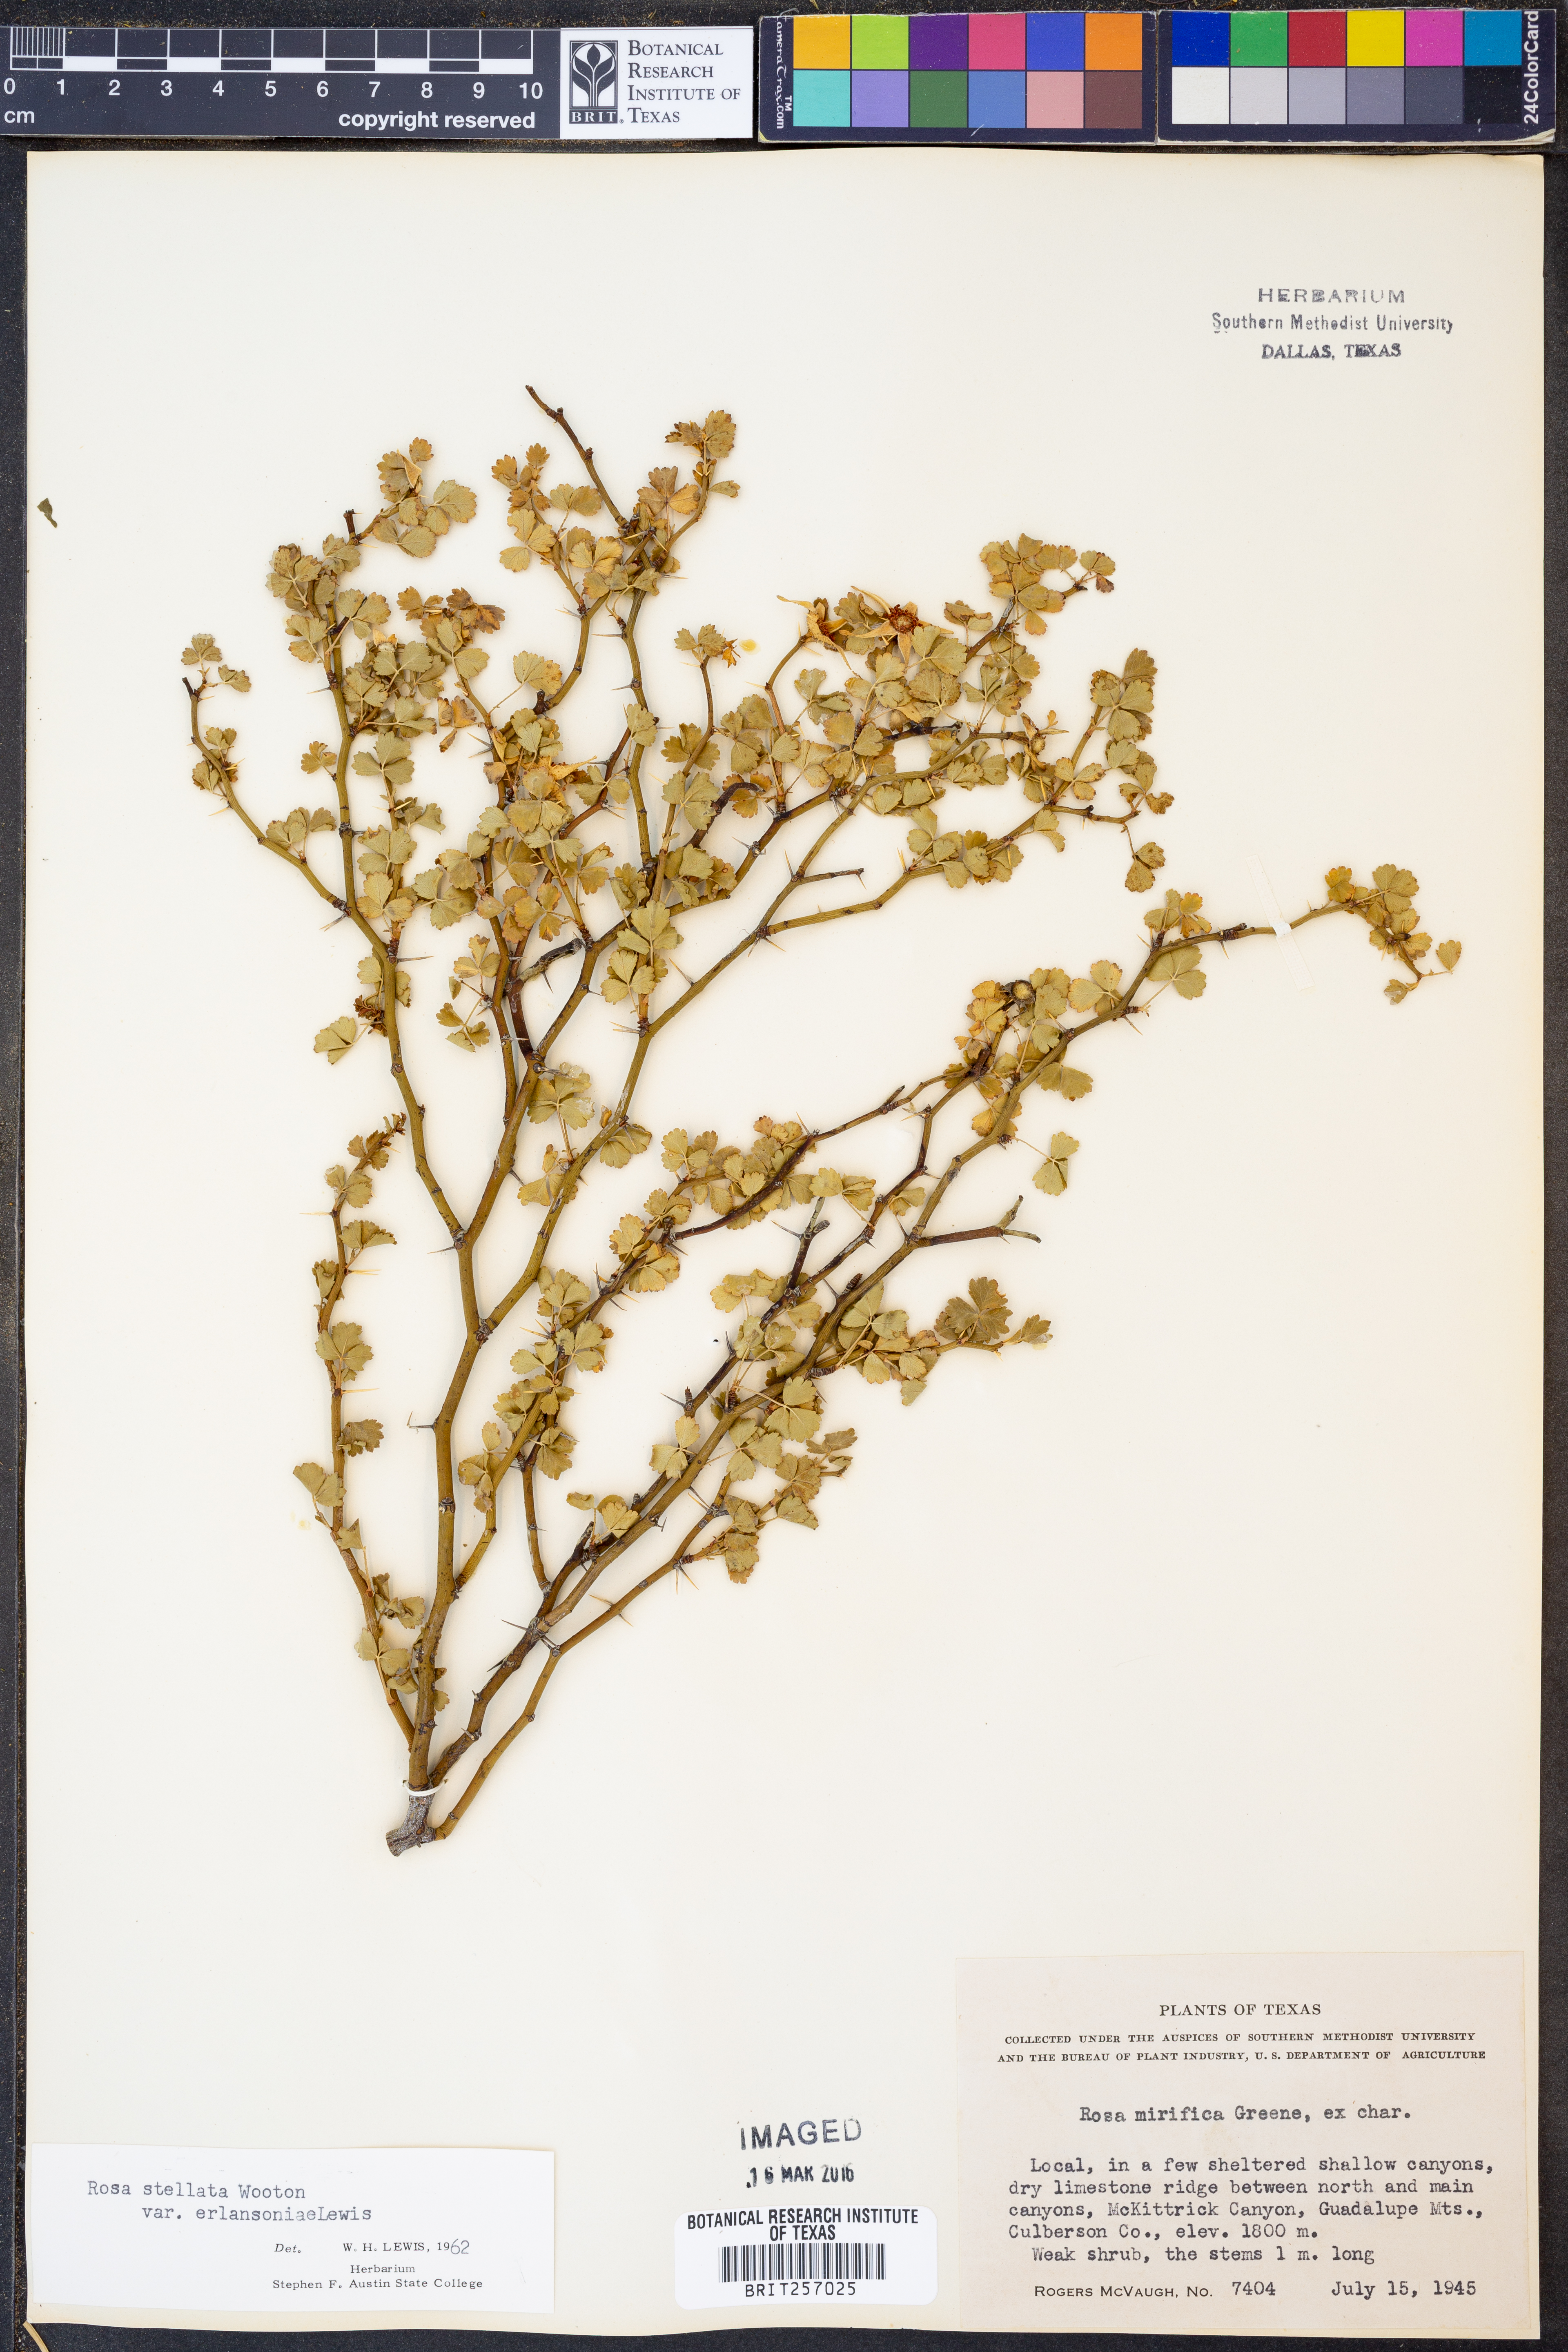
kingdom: Plantae
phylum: Tracheophyta
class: Magnoliopsida
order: Rosales
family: Rosaceae
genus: Rosa
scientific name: Rosa stellata
